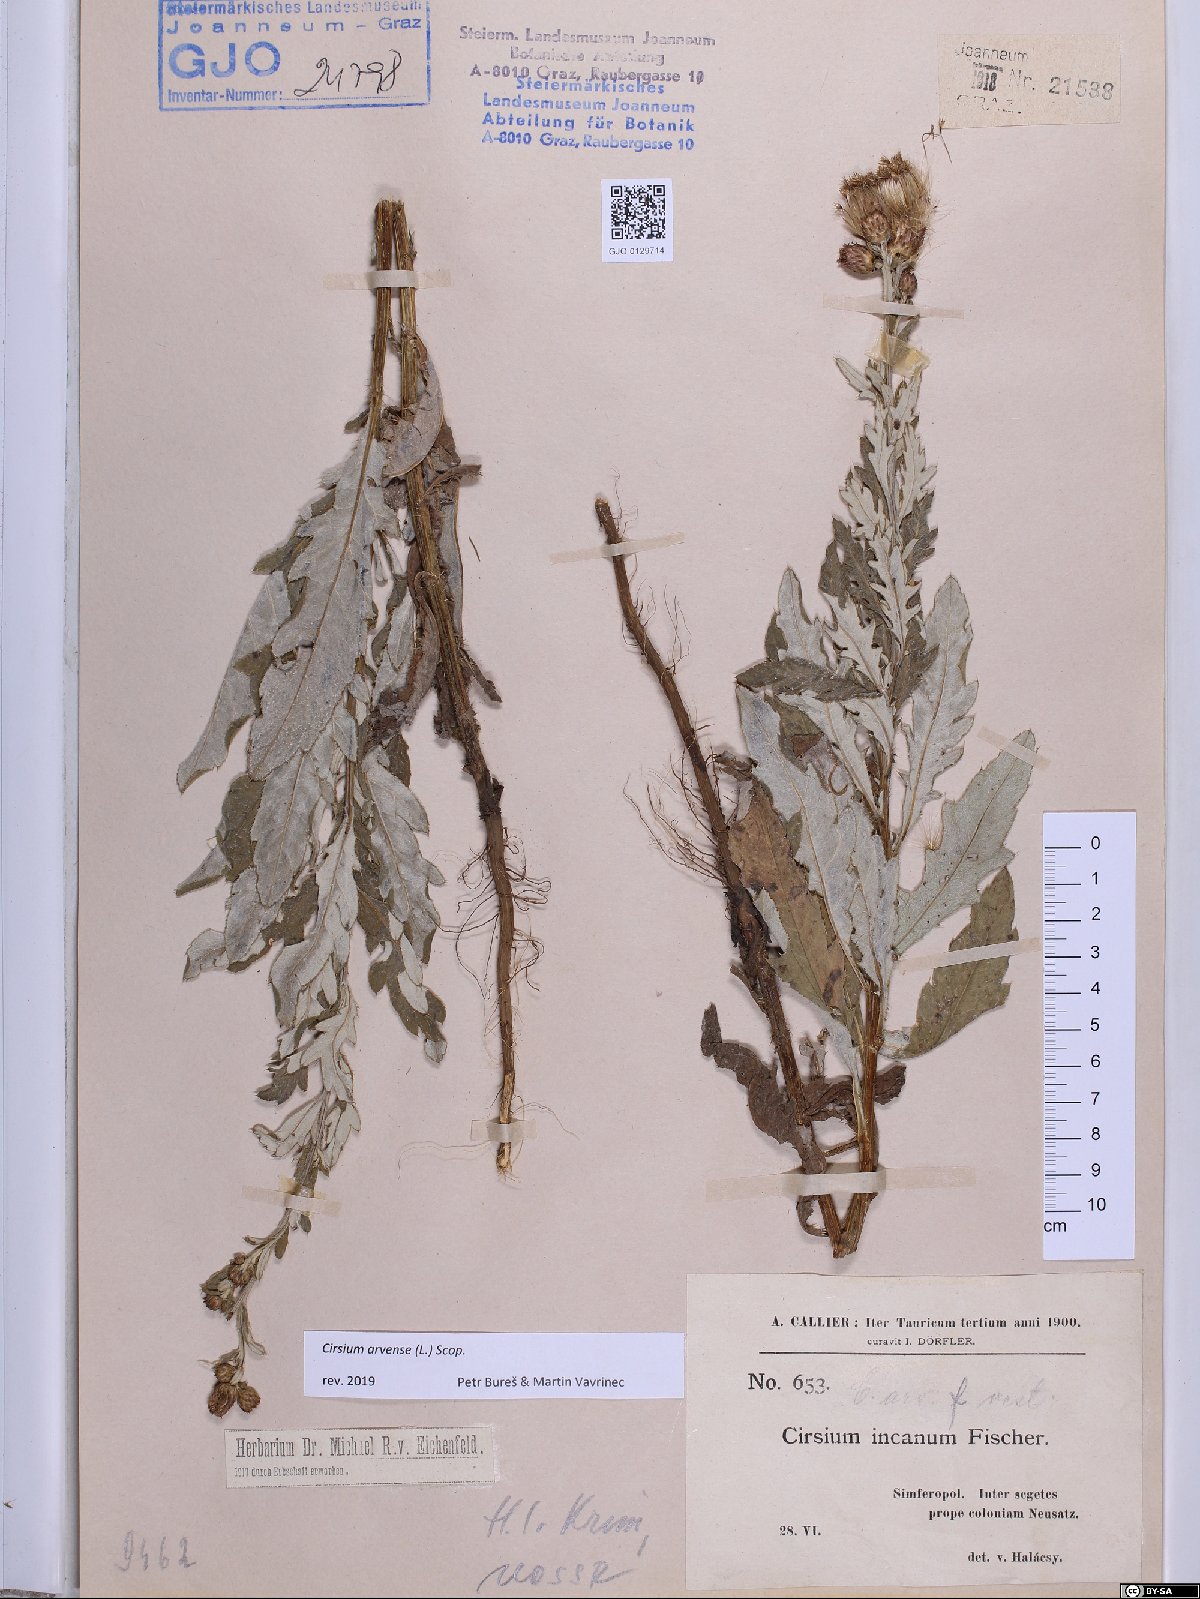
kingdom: Plantae
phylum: Tracheophyta
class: Magnoliopsida
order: Asterales
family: Asteraceae
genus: Cirsium
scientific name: Cirsium arvense
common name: Creeping thistle
